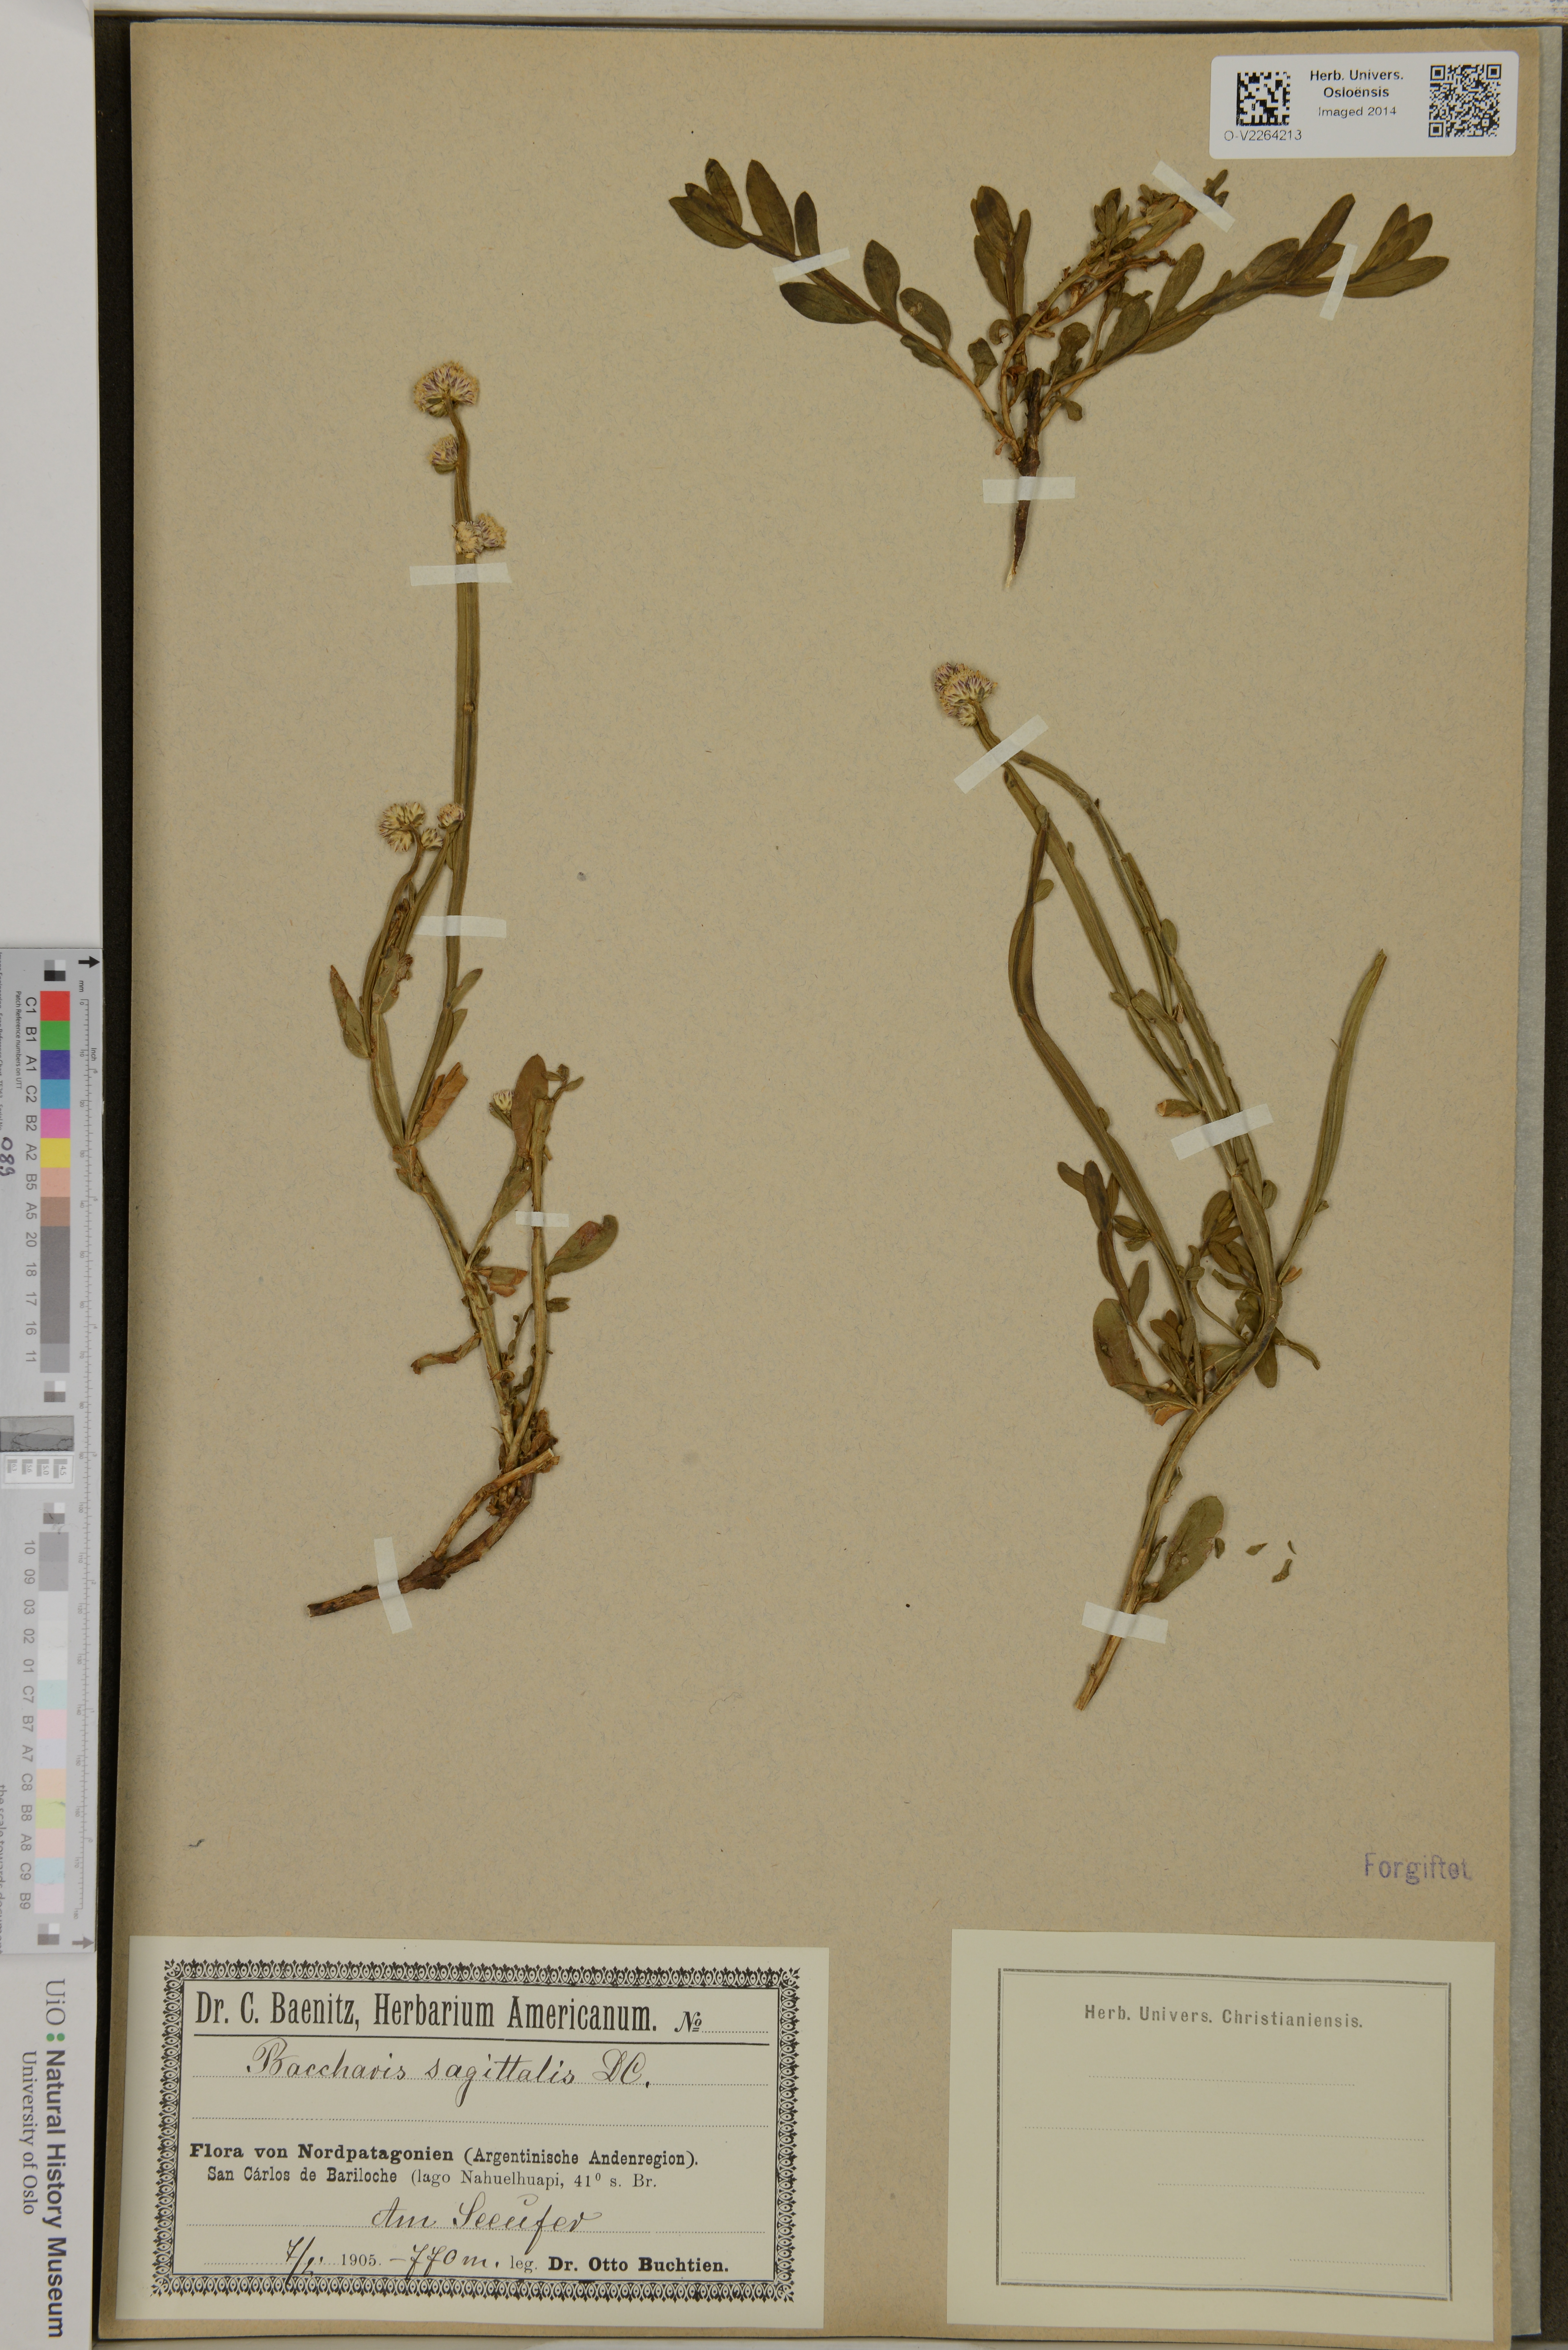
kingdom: Plantae
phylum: Tracheophyta
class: Magnoliopsida
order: Asterales
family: Asteraceae
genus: Baccharis
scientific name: Baccharis sagittalis
